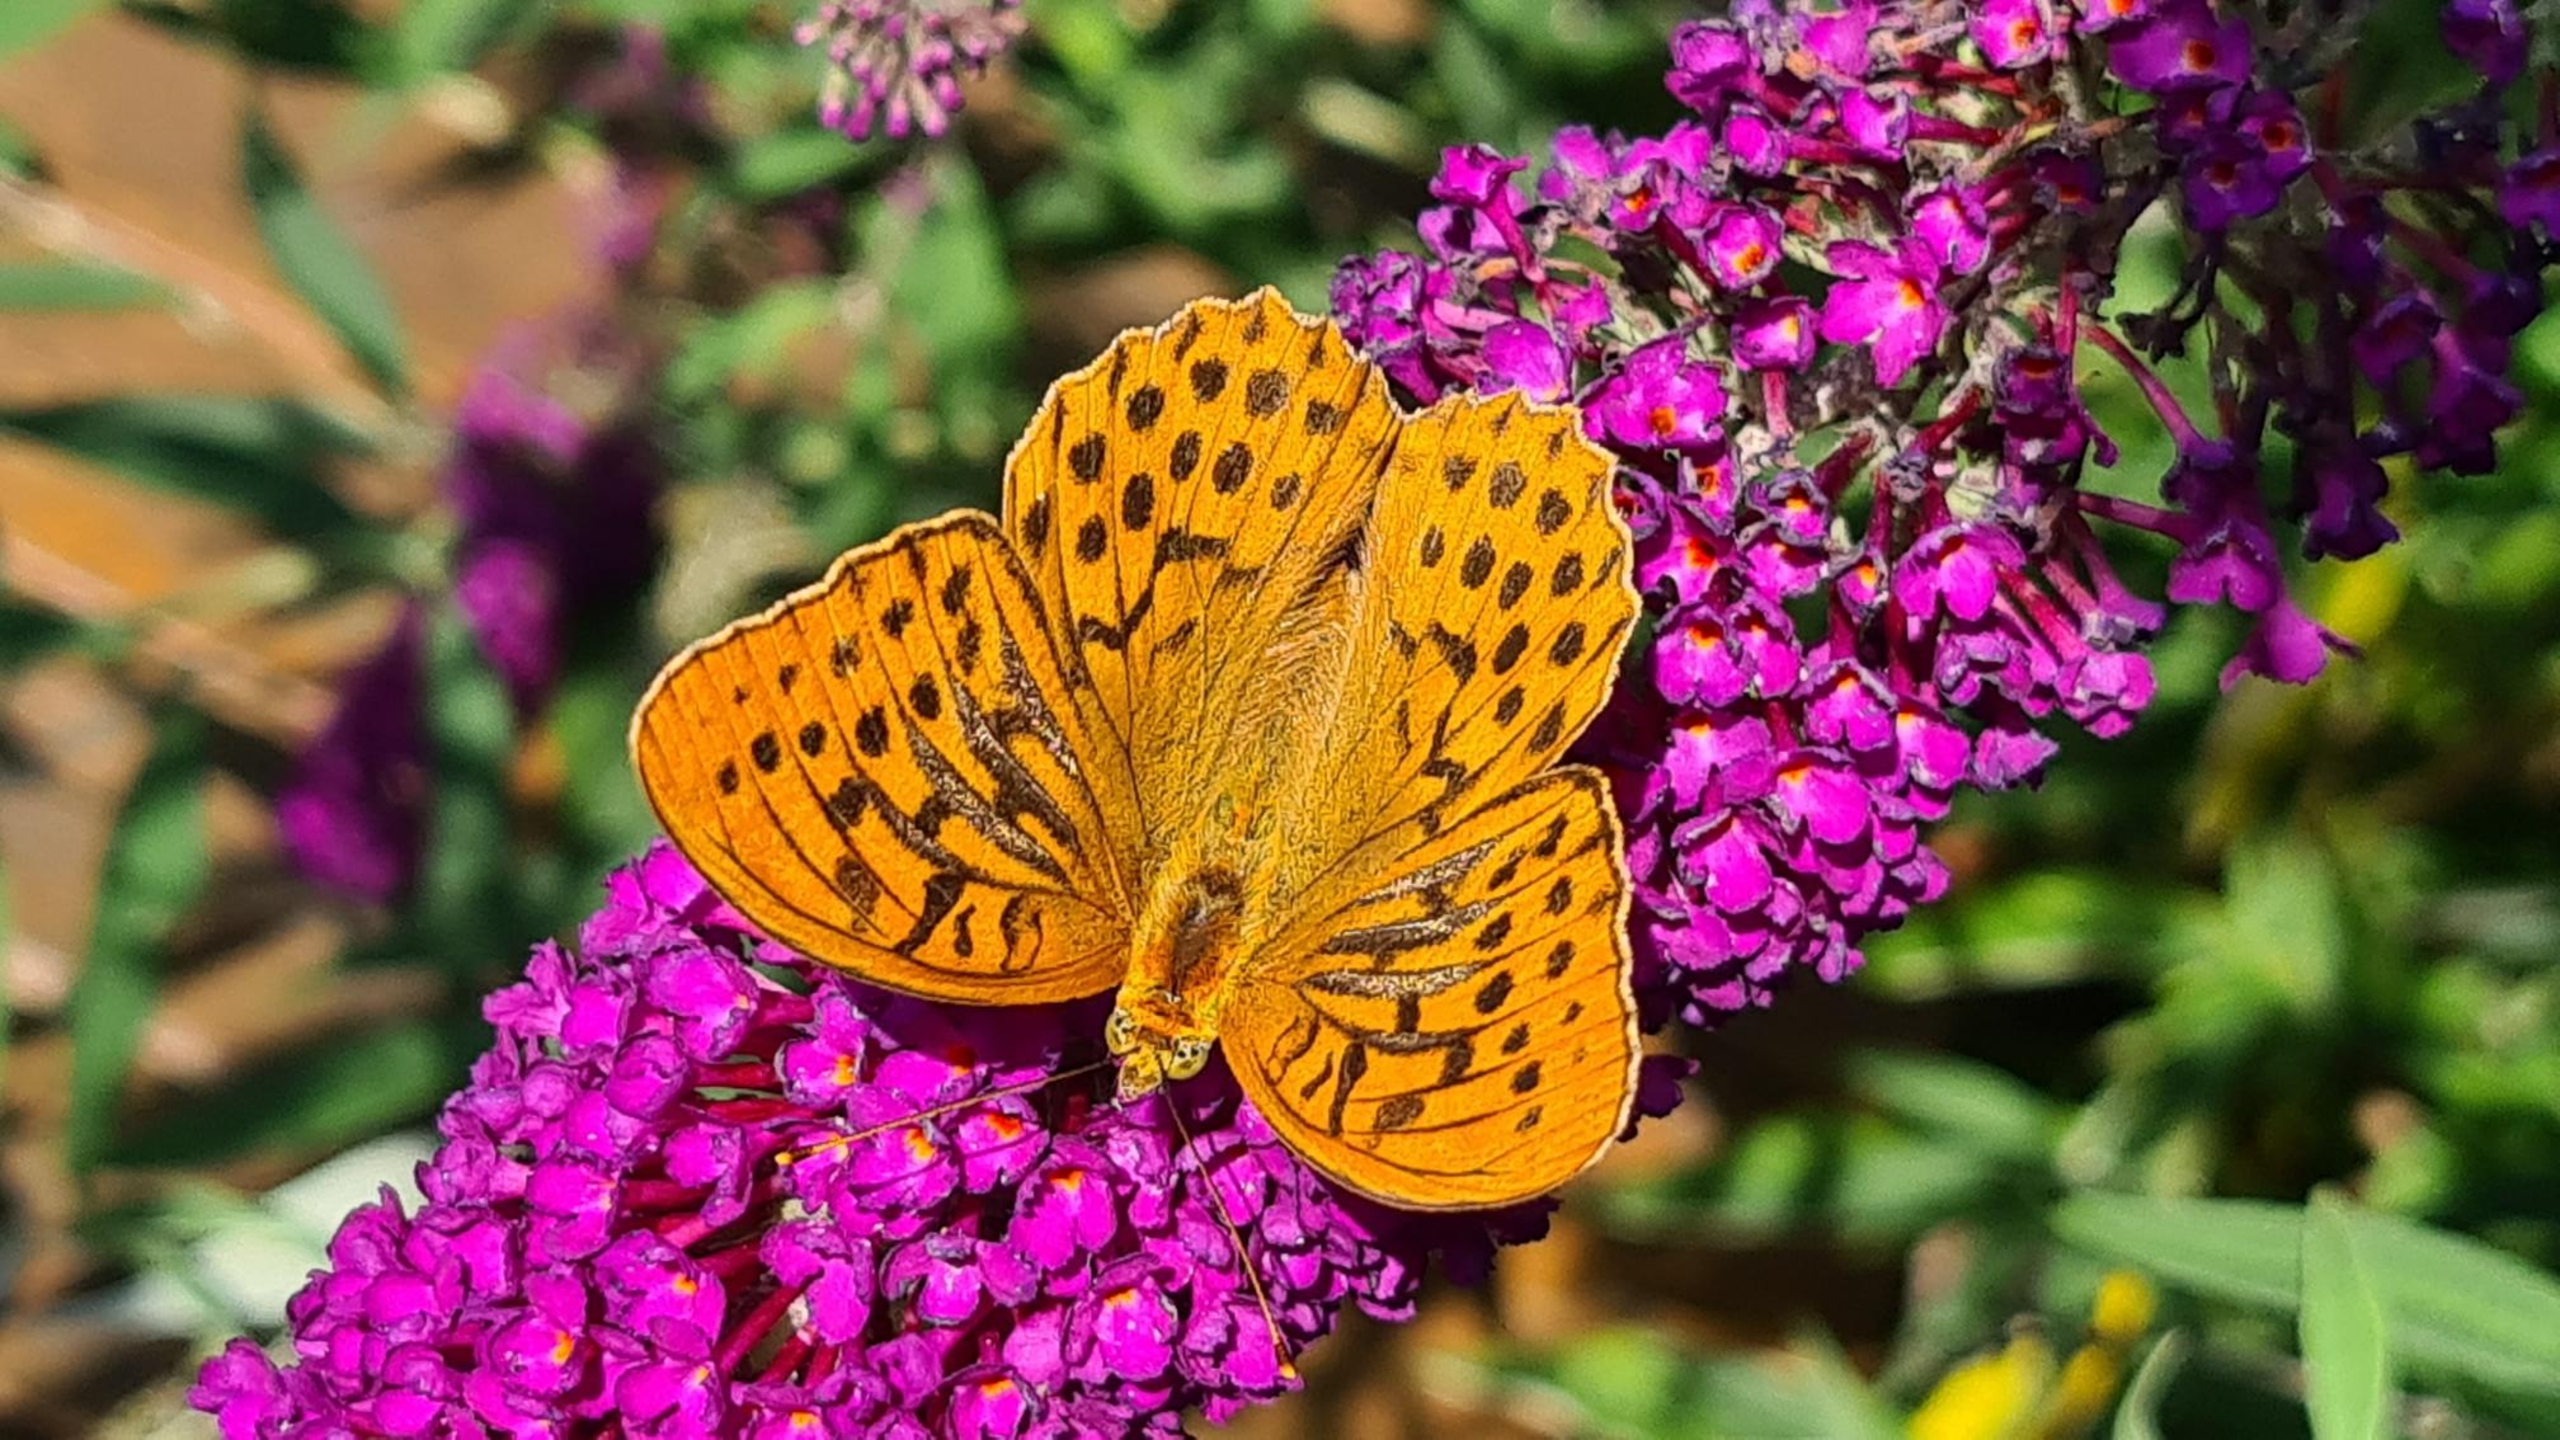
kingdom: Animalia
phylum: Arthropoda
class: Insecta
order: Lepidoptera
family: Nymphalidae
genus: Argynnis
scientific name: Argynnis paphia
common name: Kejserkåbe
